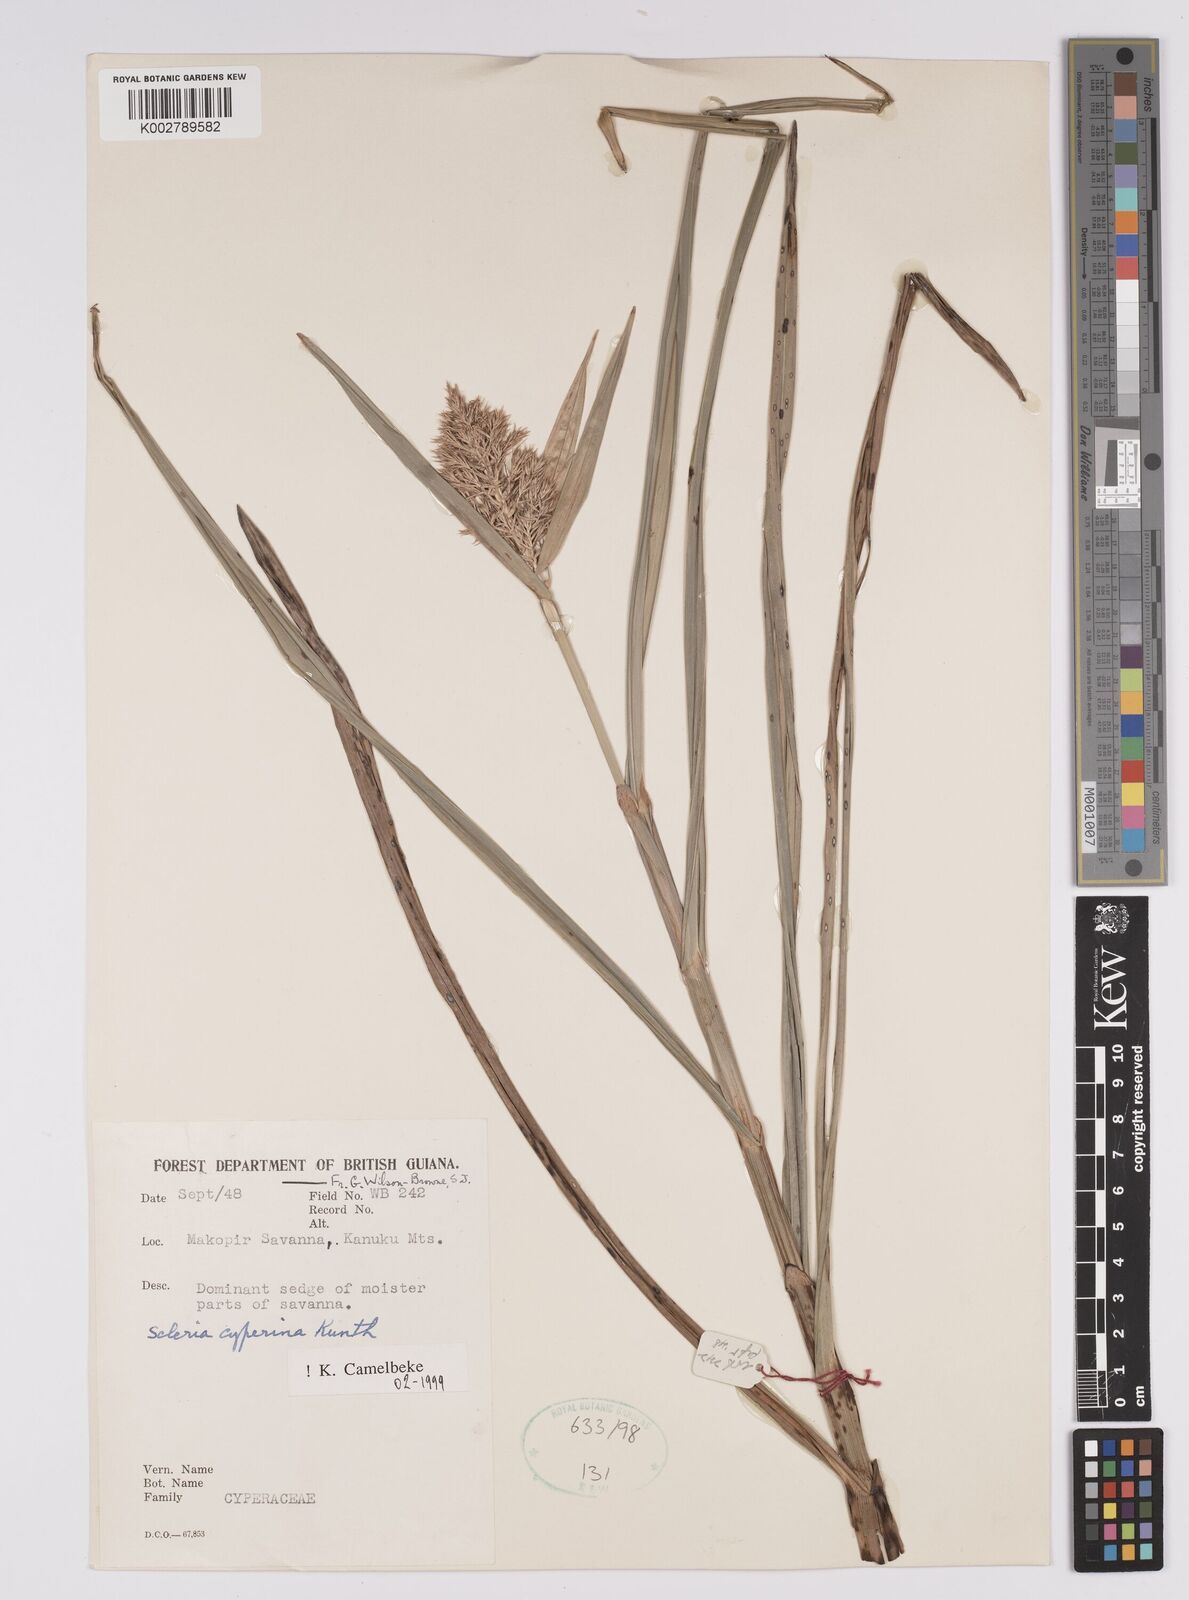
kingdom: Plantae
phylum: Tracheophyta
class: Liliopsida
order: Poales
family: Cyperaceae
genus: Scleria
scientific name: Scleria cyperina
